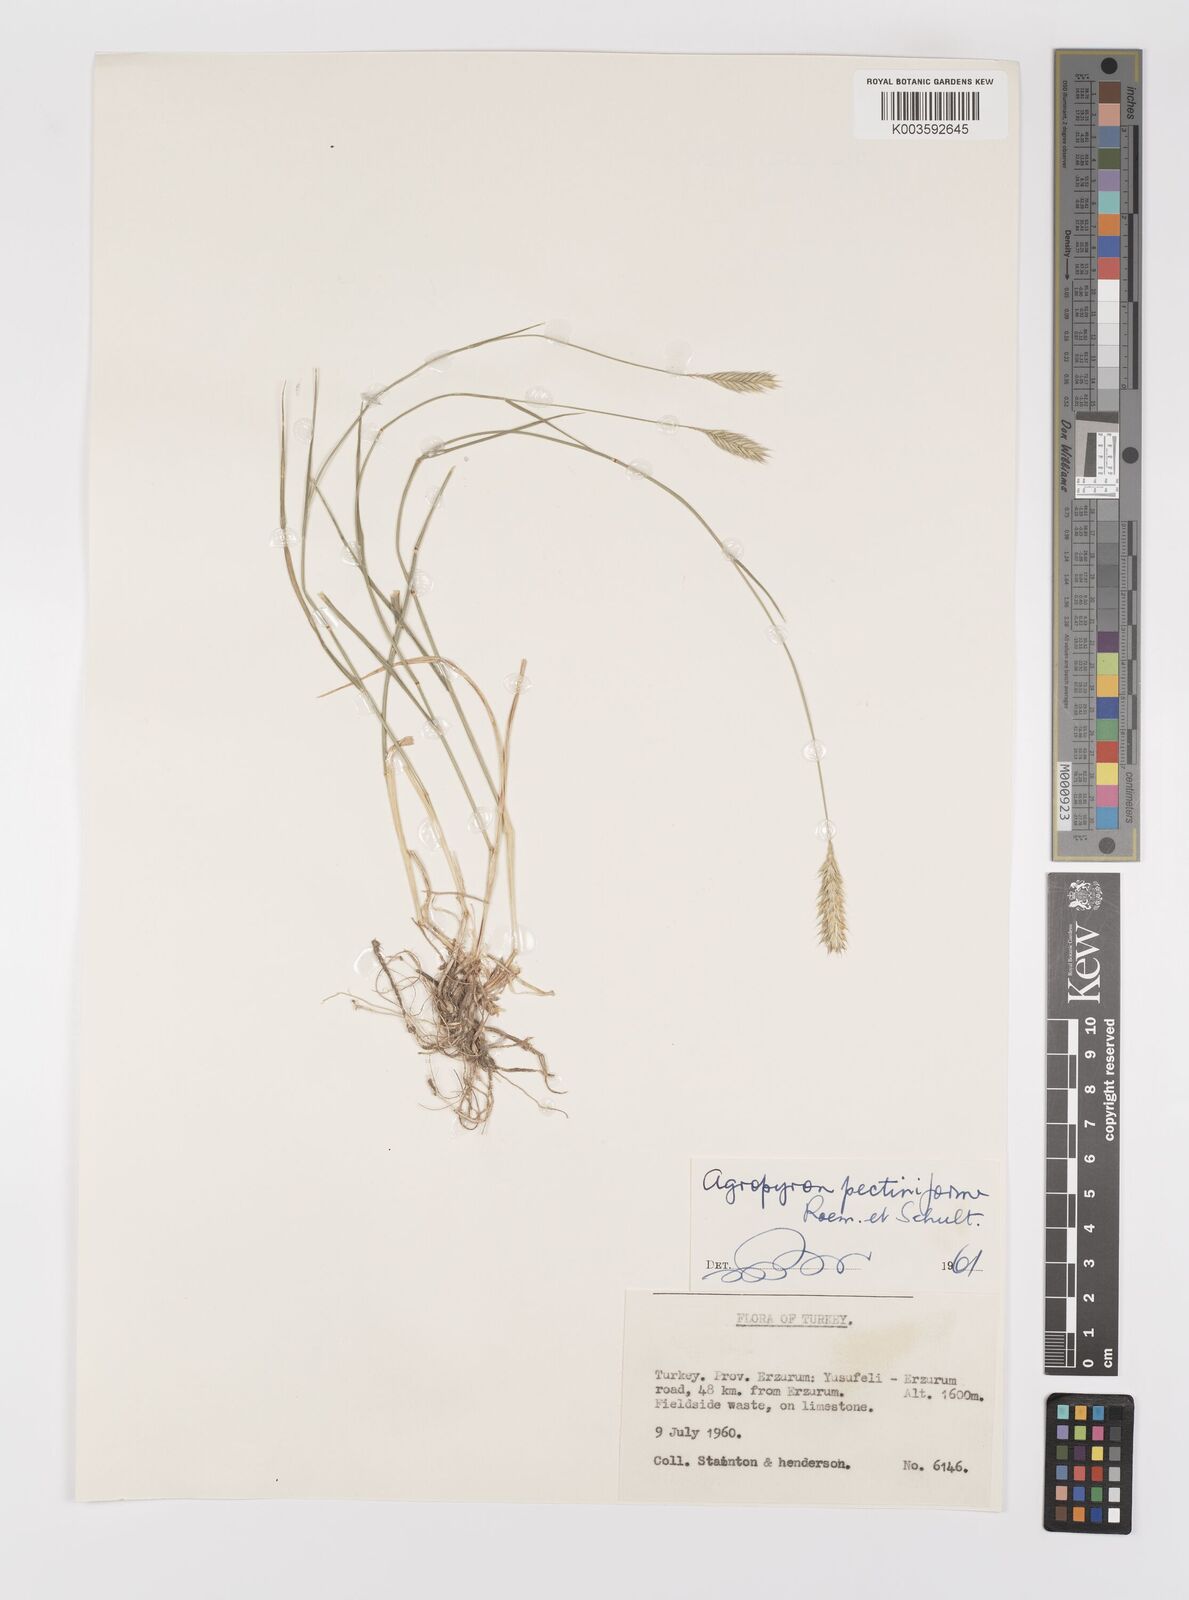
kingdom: Plantae
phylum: Tracheophyta
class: Liliopsida
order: Poales
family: Poaceae
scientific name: Poaceae
